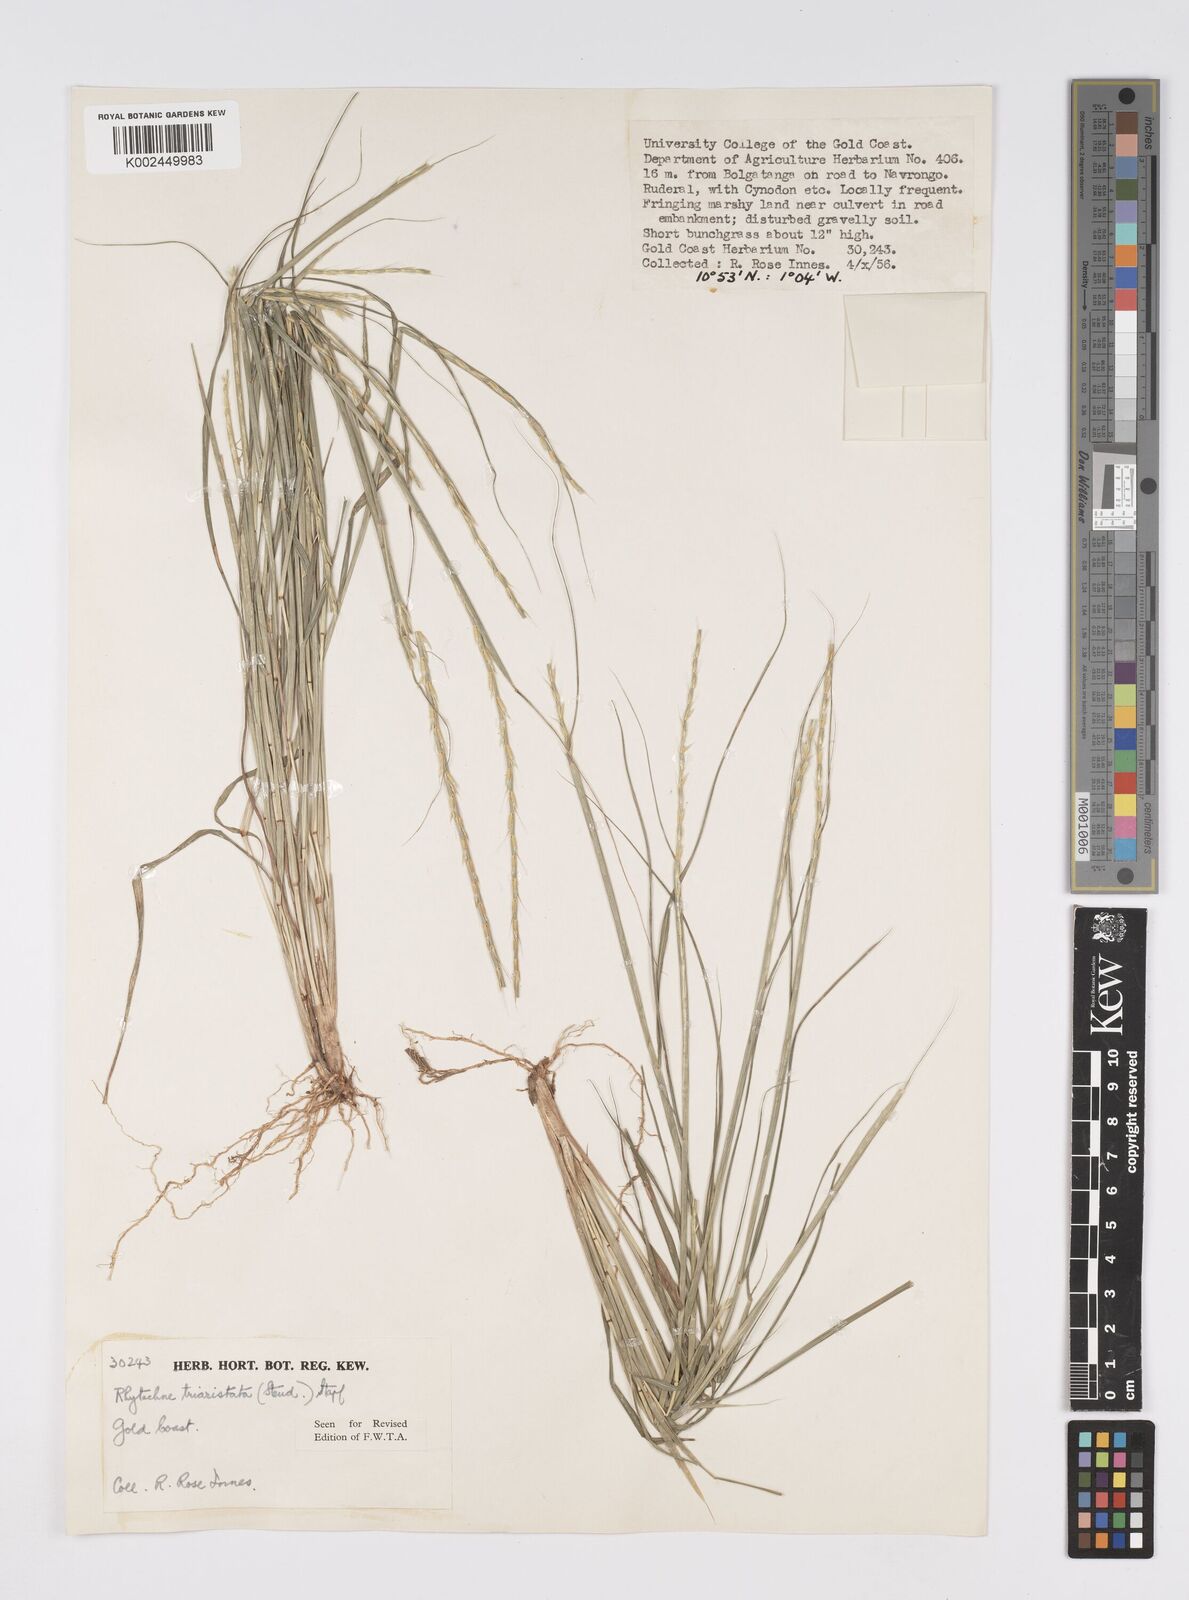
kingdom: Plantae
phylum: Tracheophyta
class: Liliopsida
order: Poales
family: Poaceae
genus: Rhytachne
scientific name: Rhytachne triaristata
